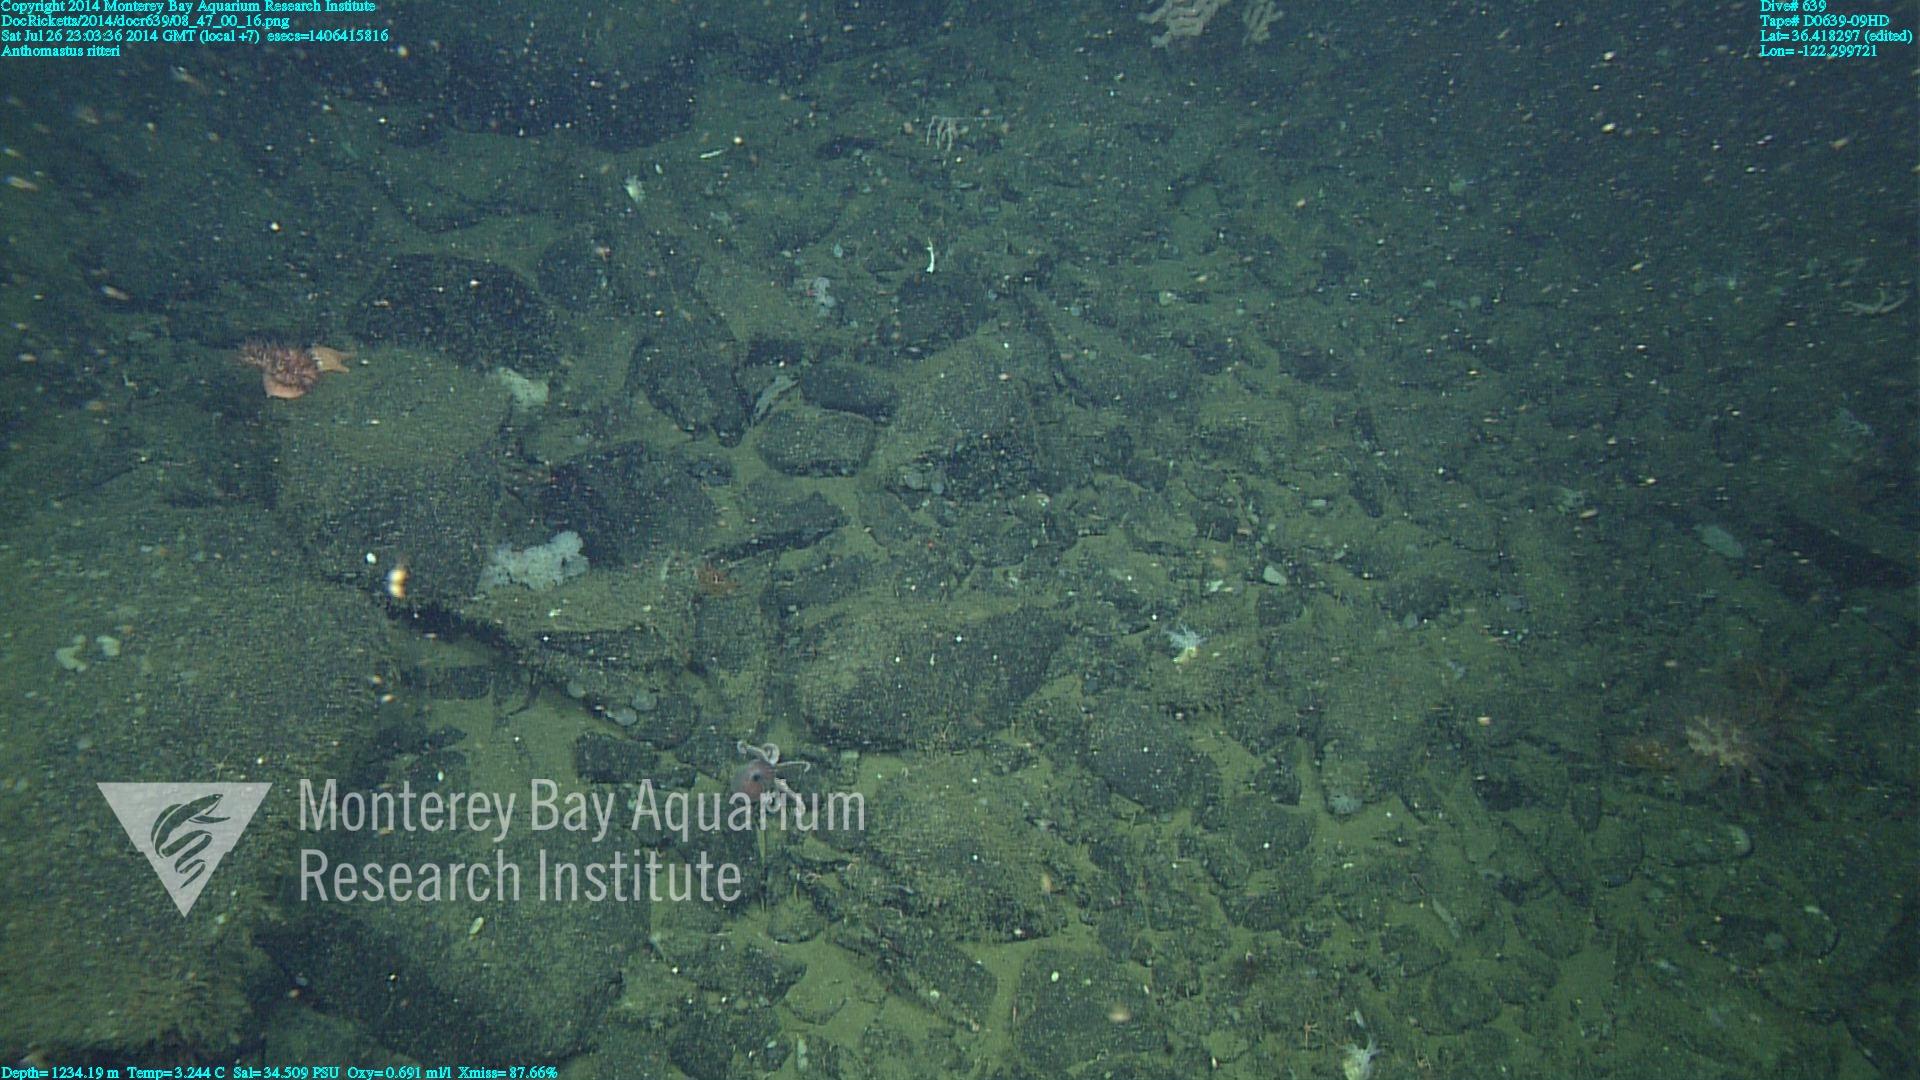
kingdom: Animalia
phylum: Cnidaria
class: Anthozoa
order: Scleralcyonacea
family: Coralliidae
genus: Heteropolypus
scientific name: Heteropolypus ritteri
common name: Ritter's soft coral
